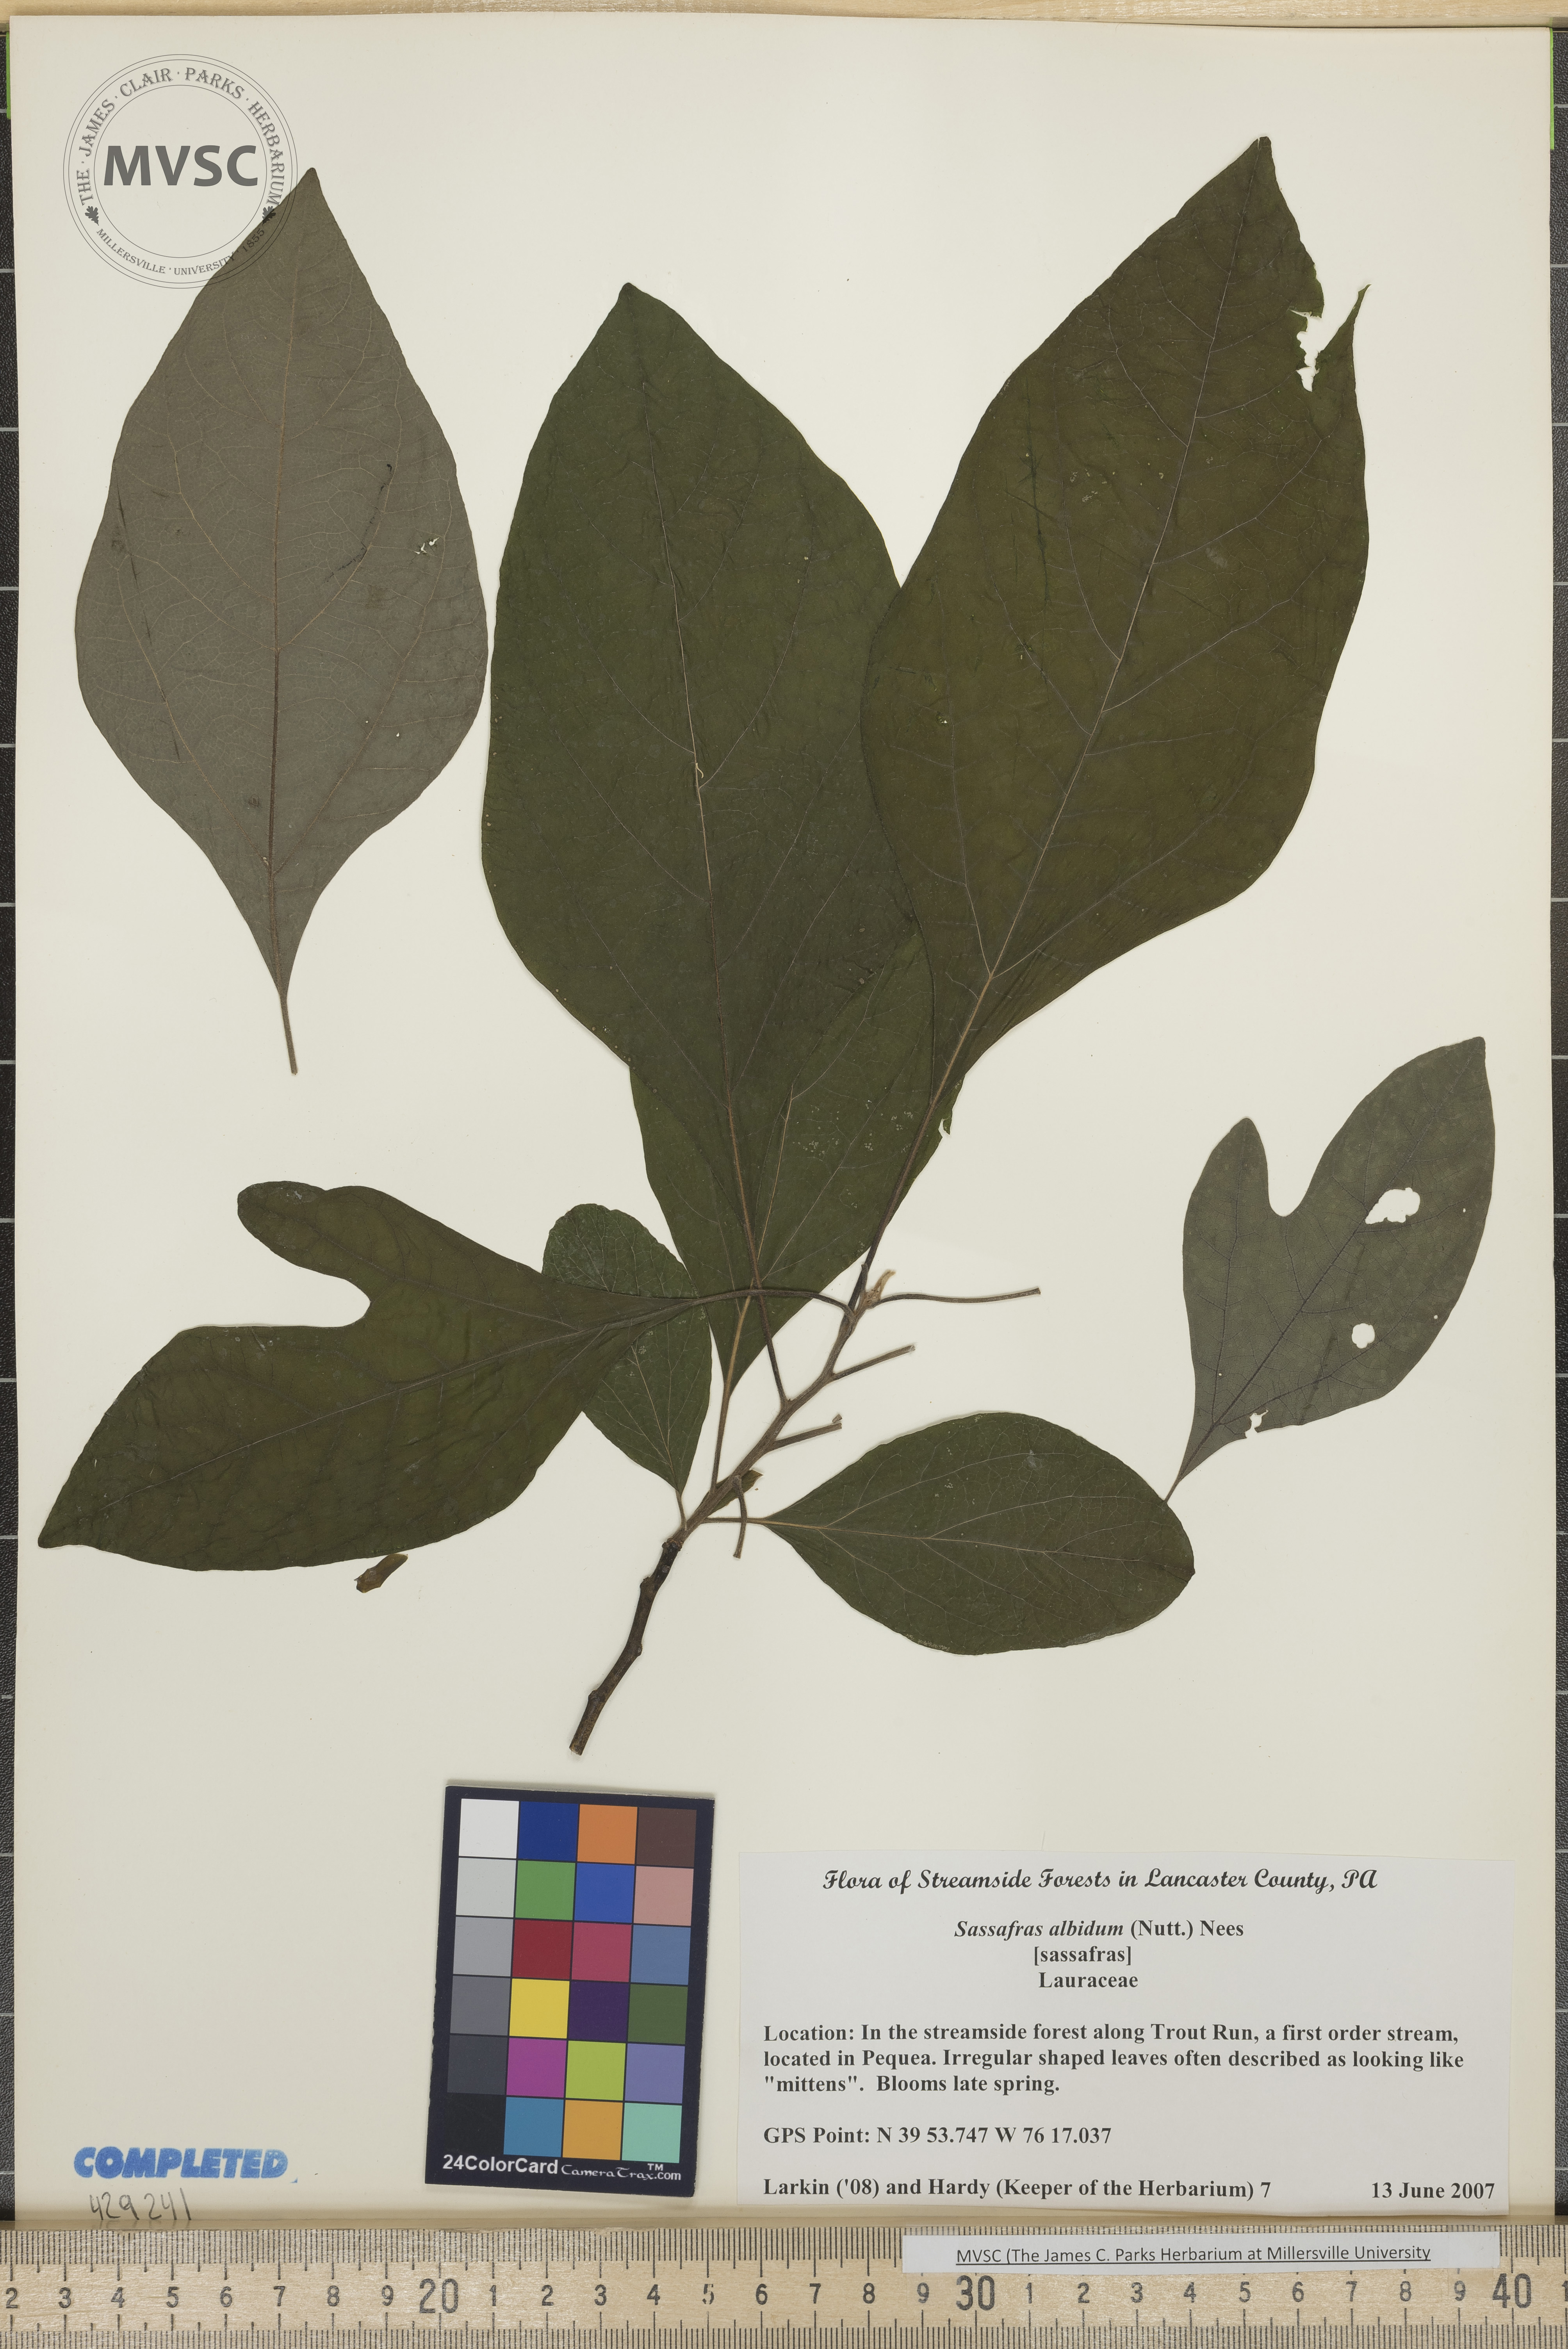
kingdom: Plantae
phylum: Tracheophyta
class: Magnoliopsida
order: Laurales
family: Lauraceae
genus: Sassafras
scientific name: Sassafras albidum
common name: Sassafras
